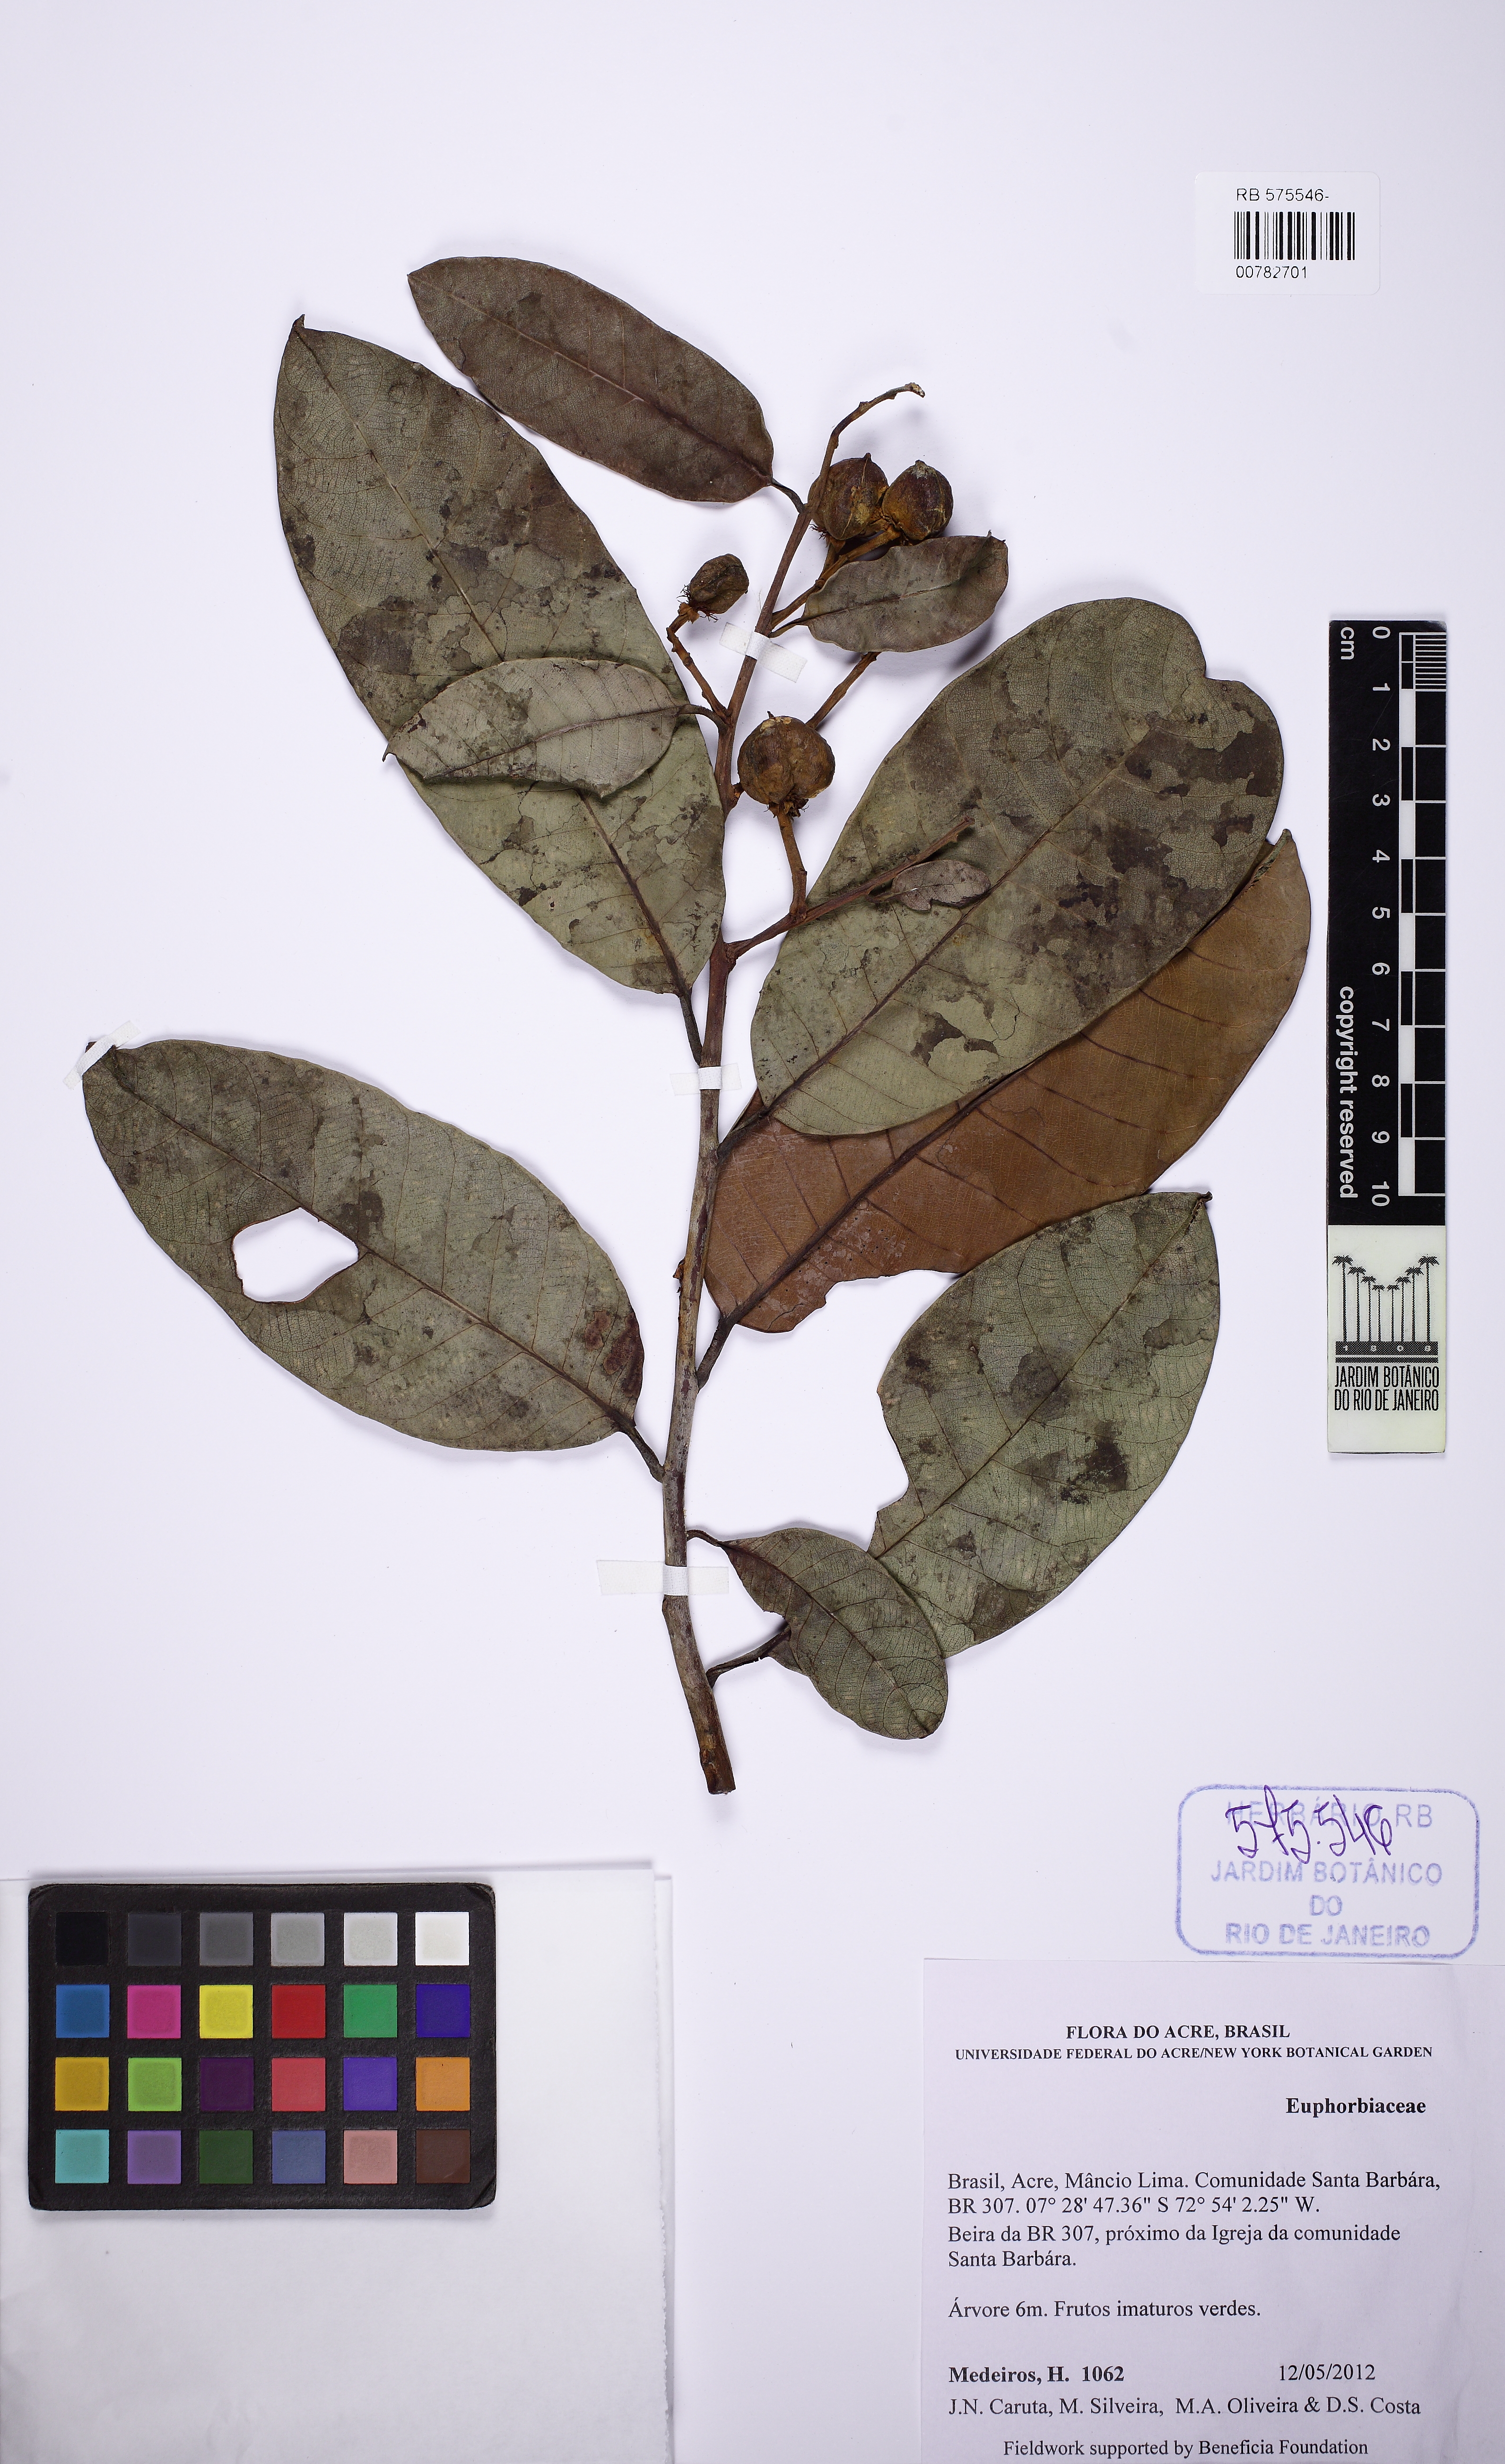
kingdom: Plantae
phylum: Tracheophyta
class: Magnoliopsida
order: Malpighiales
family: Phyllanthaceae
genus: Amanoa
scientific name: Amanoa
